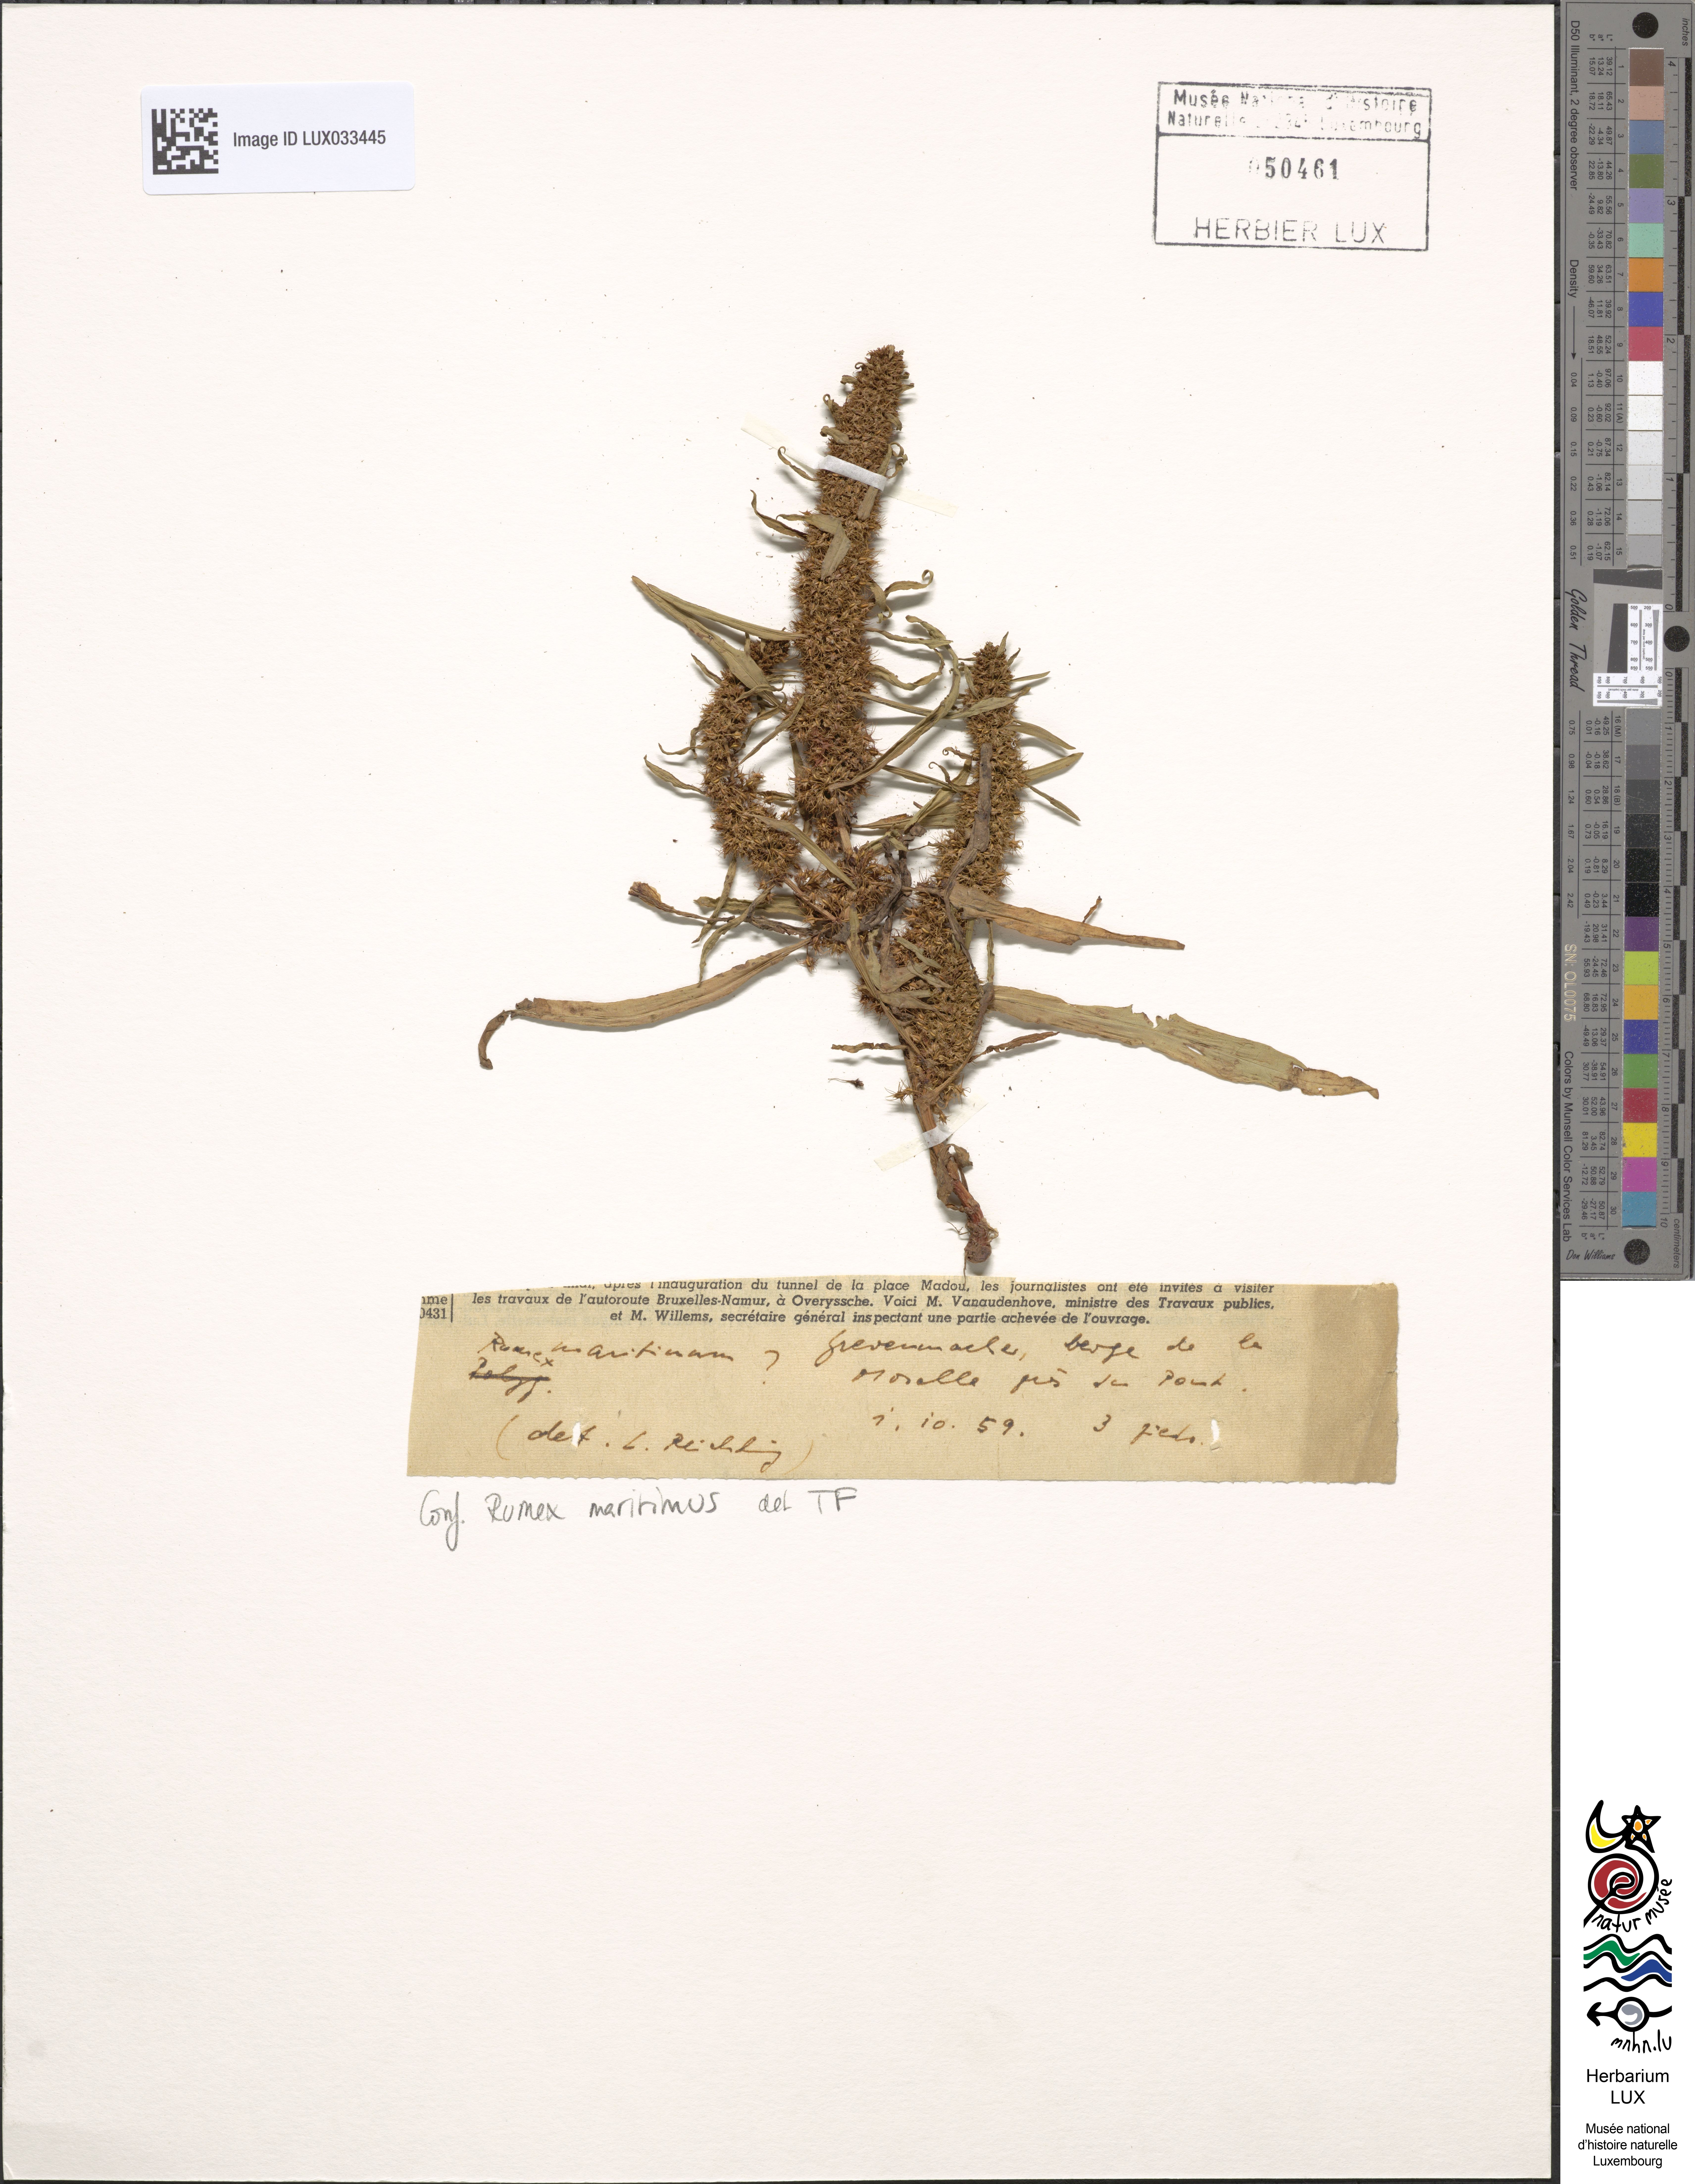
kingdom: Plantae
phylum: Tracheophyta
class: Magnoliopsida
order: Caryophyllales
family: Polygonaceae
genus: Rumex
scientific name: Rumex maritimus
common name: Golden dock
